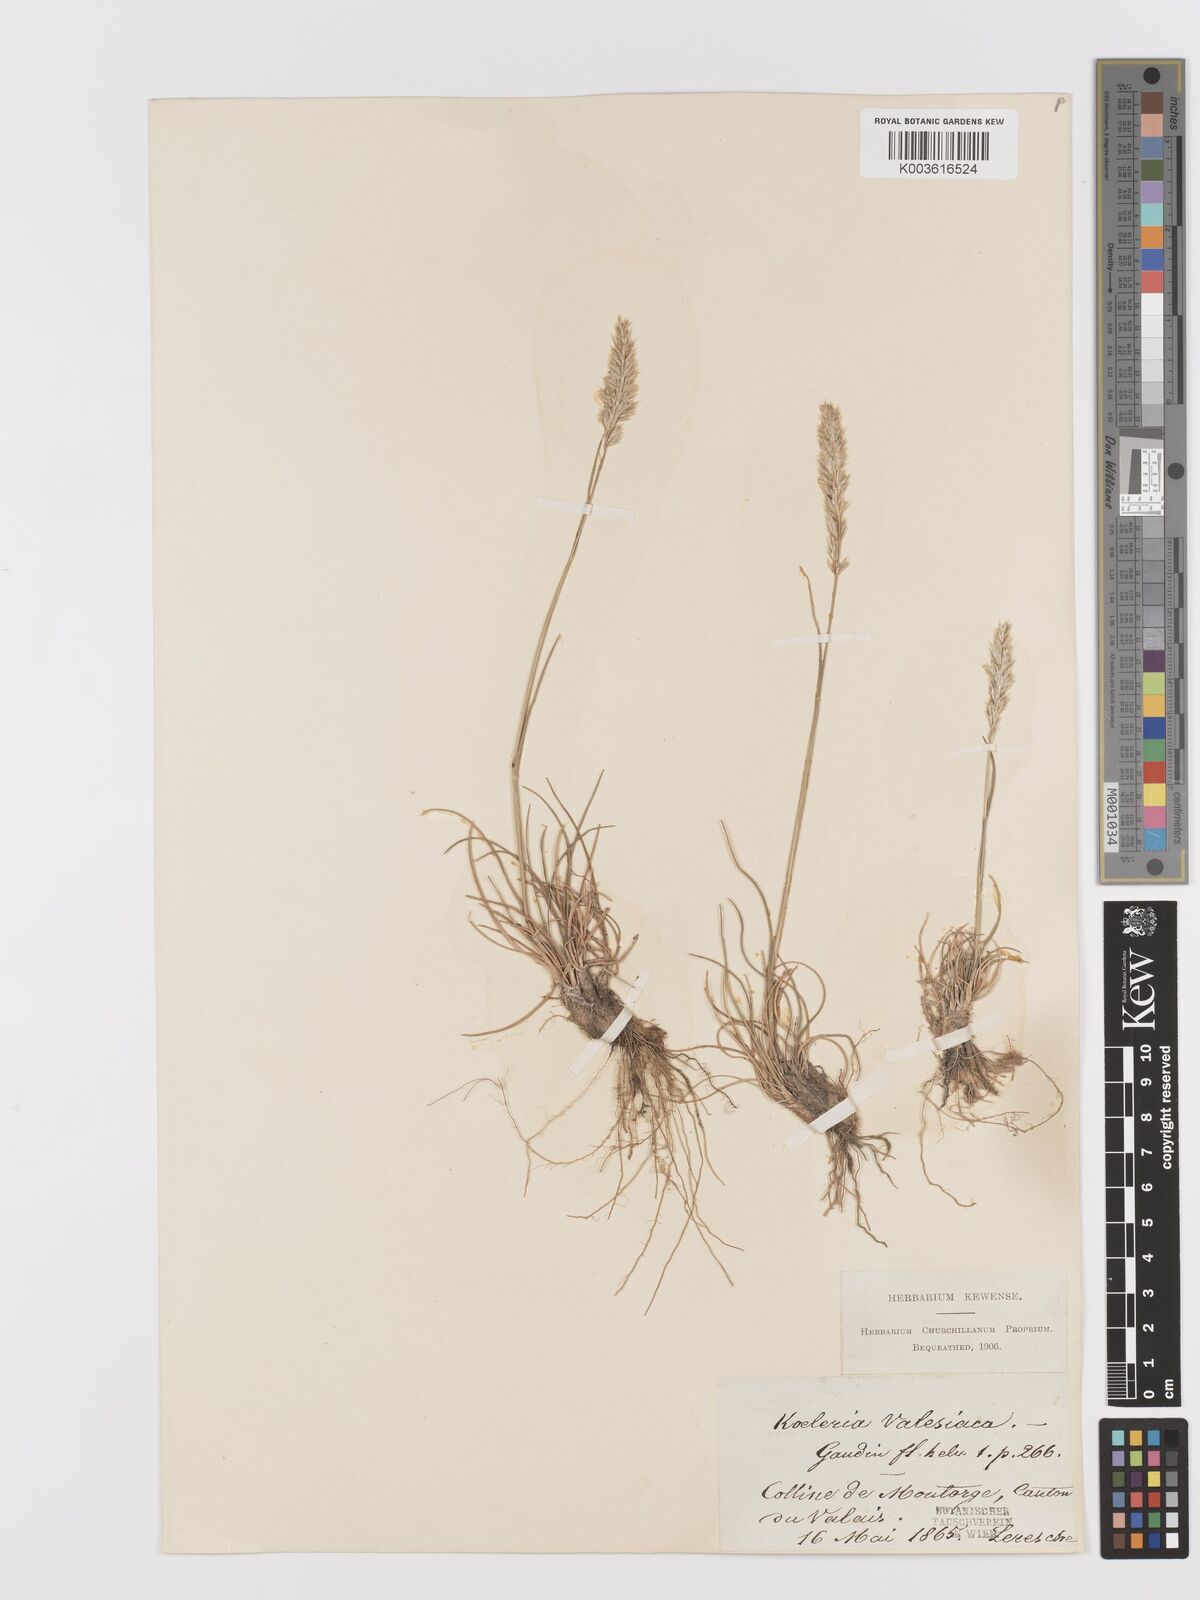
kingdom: Plantae
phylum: Tracheophyta
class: Liliopsida
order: Poales
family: Poaceae
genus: Koeleria
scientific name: Koeleria vallesiana
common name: Somerset hair-grass
